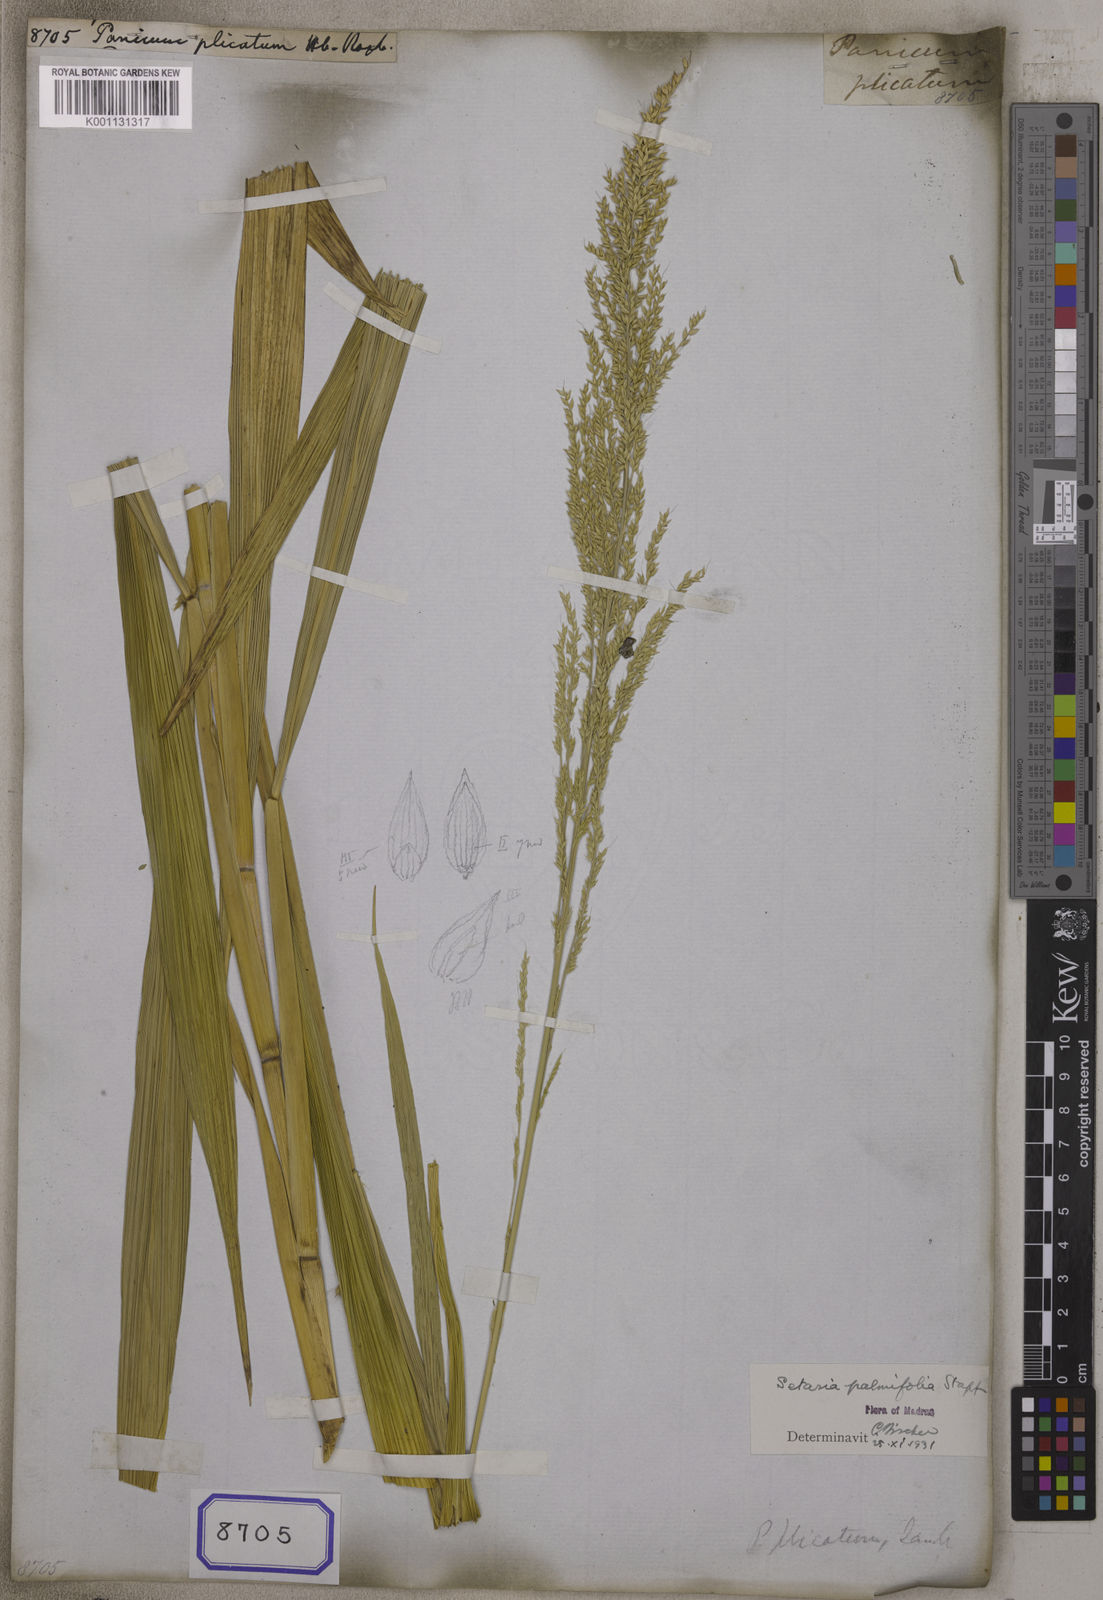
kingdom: Plantae
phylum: Tracheophyta
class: Liliopsida
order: Poales
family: Poaceae
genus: Panicum
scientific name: Panicum
